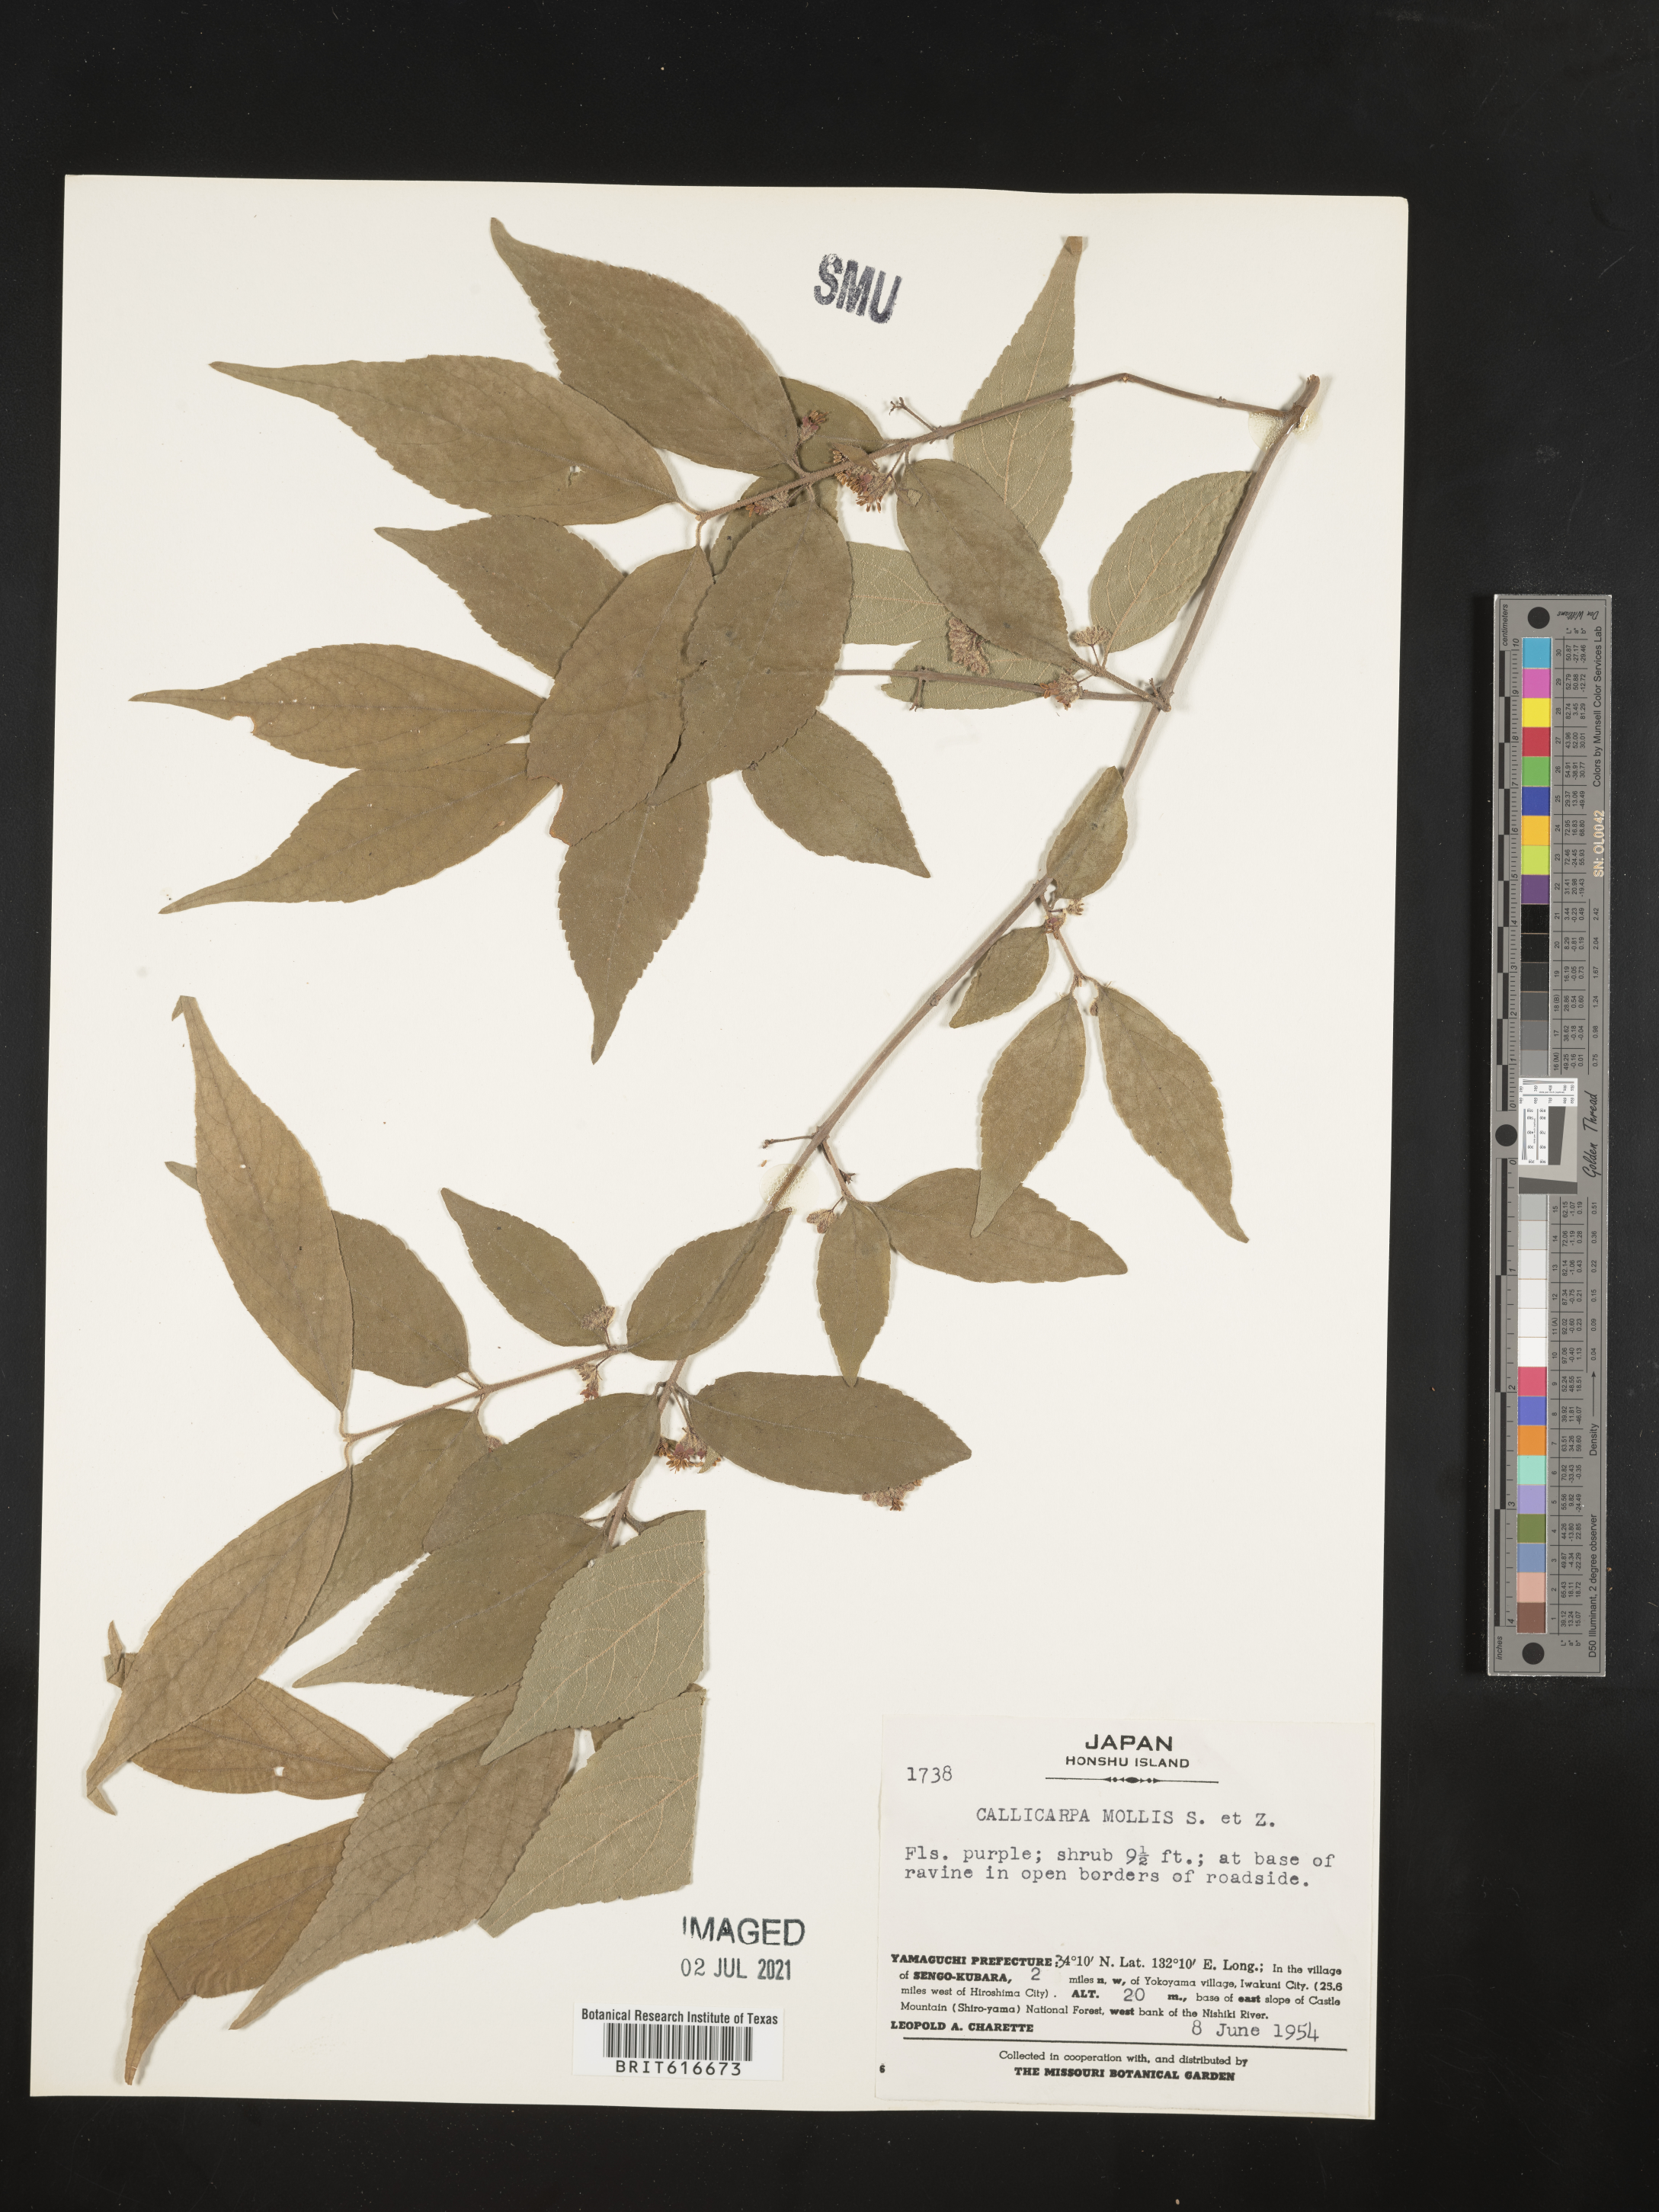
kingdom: Plantae
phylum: Tracheophyta
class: Magnoliopsida
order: Lamiales
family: Lamiaceae
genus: Callicarpa
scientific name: Callicarpa mollis
